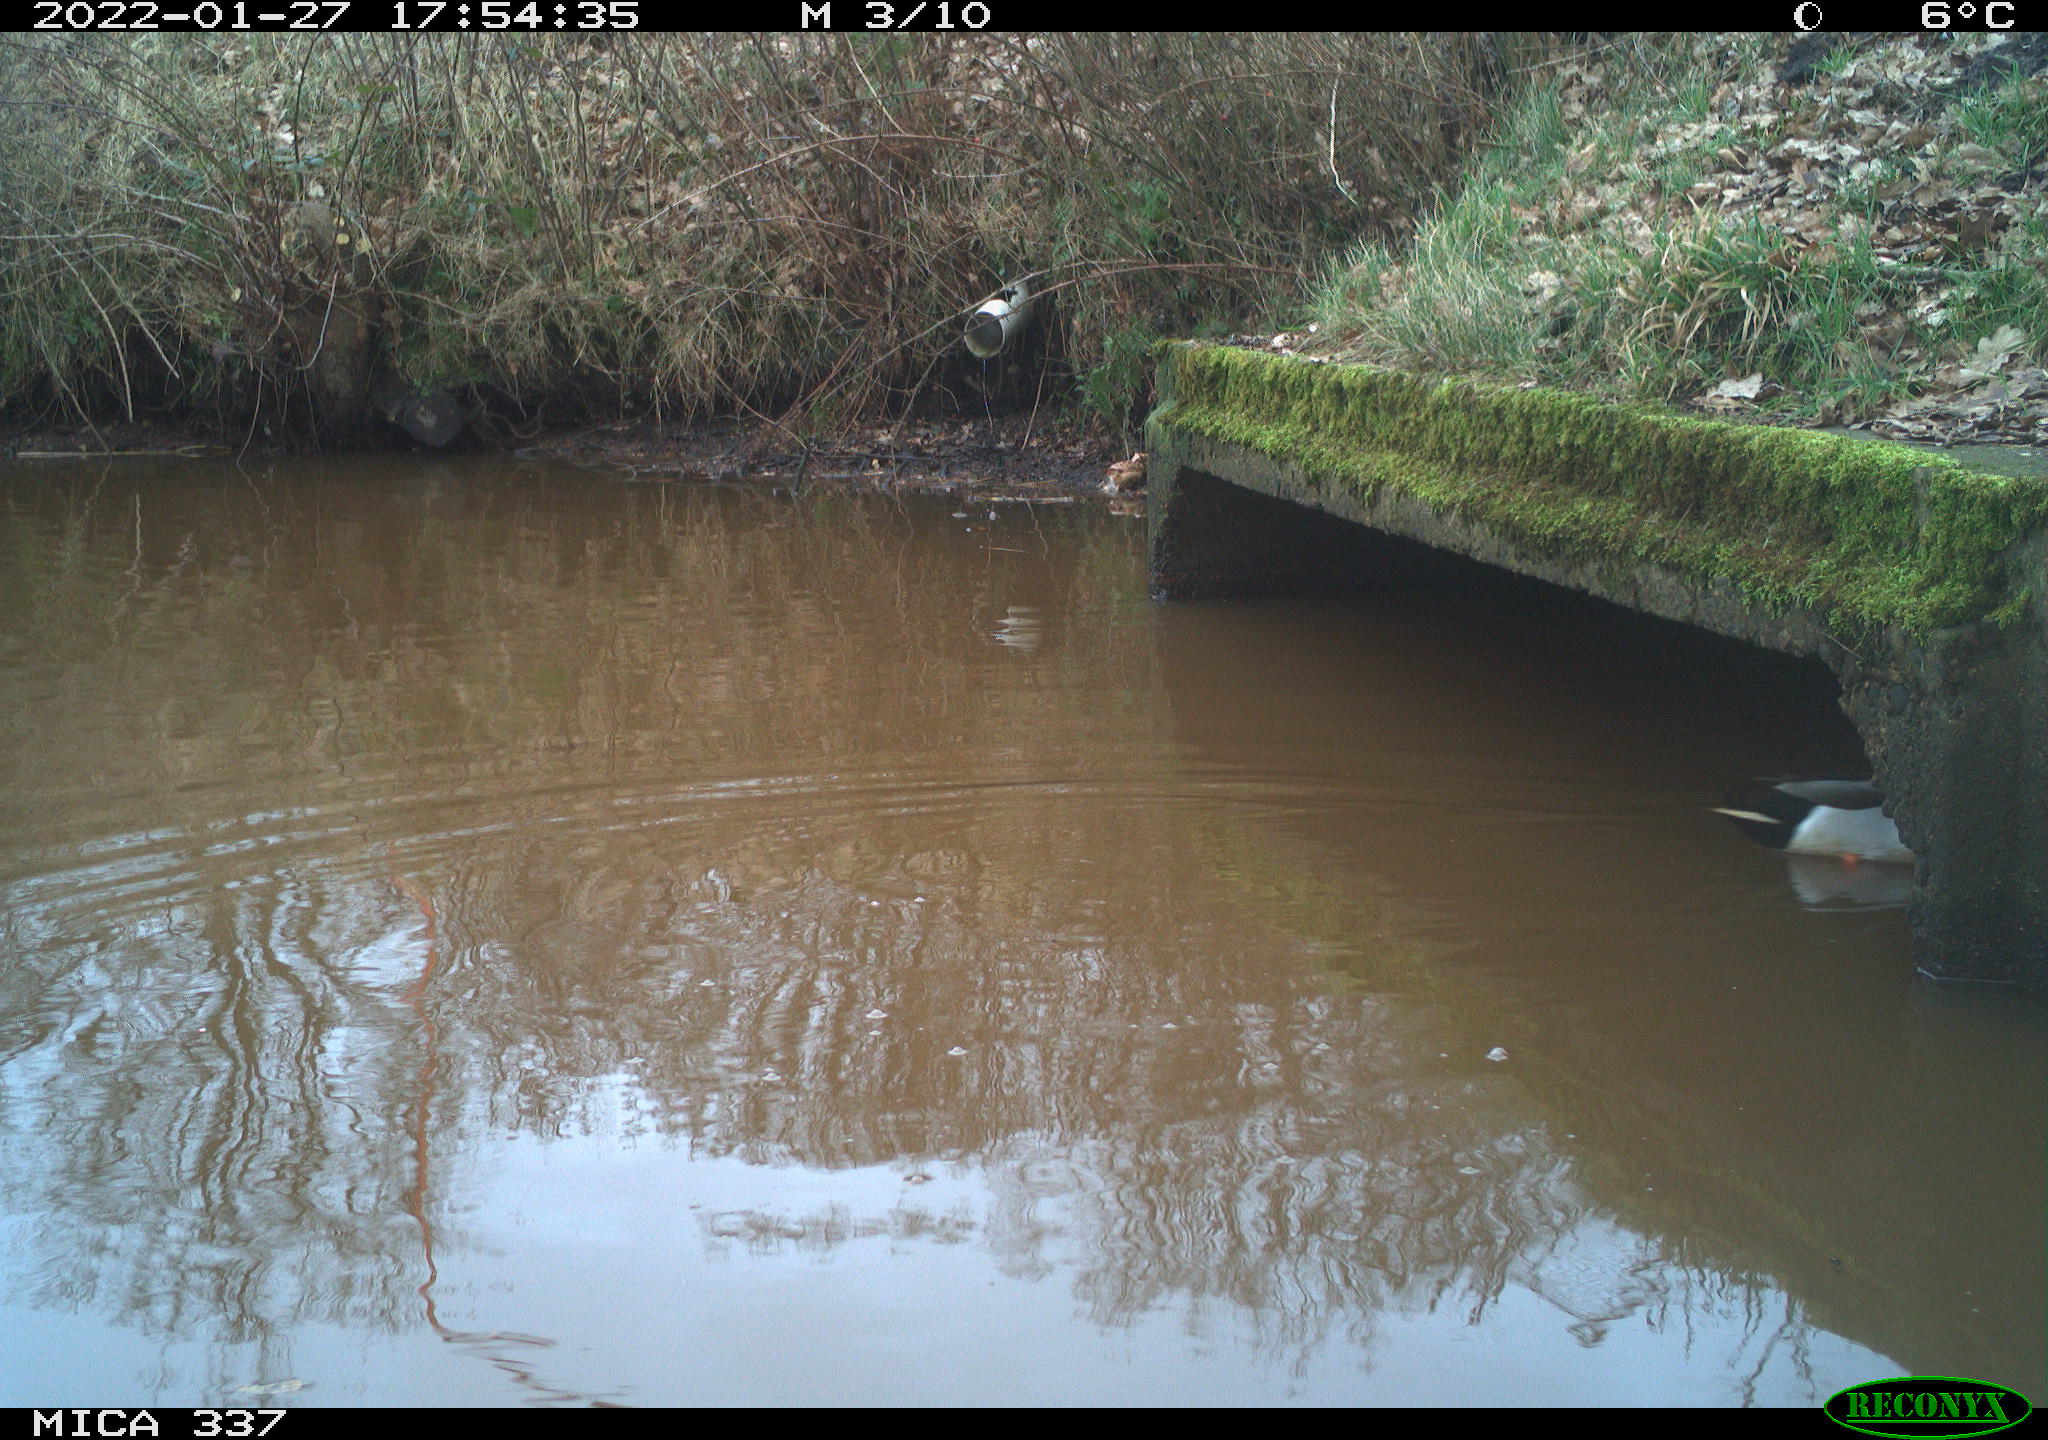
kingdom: Animalia
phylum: Chordata
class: Aves
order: Anseriformes
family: Anatidae
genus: Anas
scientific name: Anas platyrhynchos
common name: Mallard
